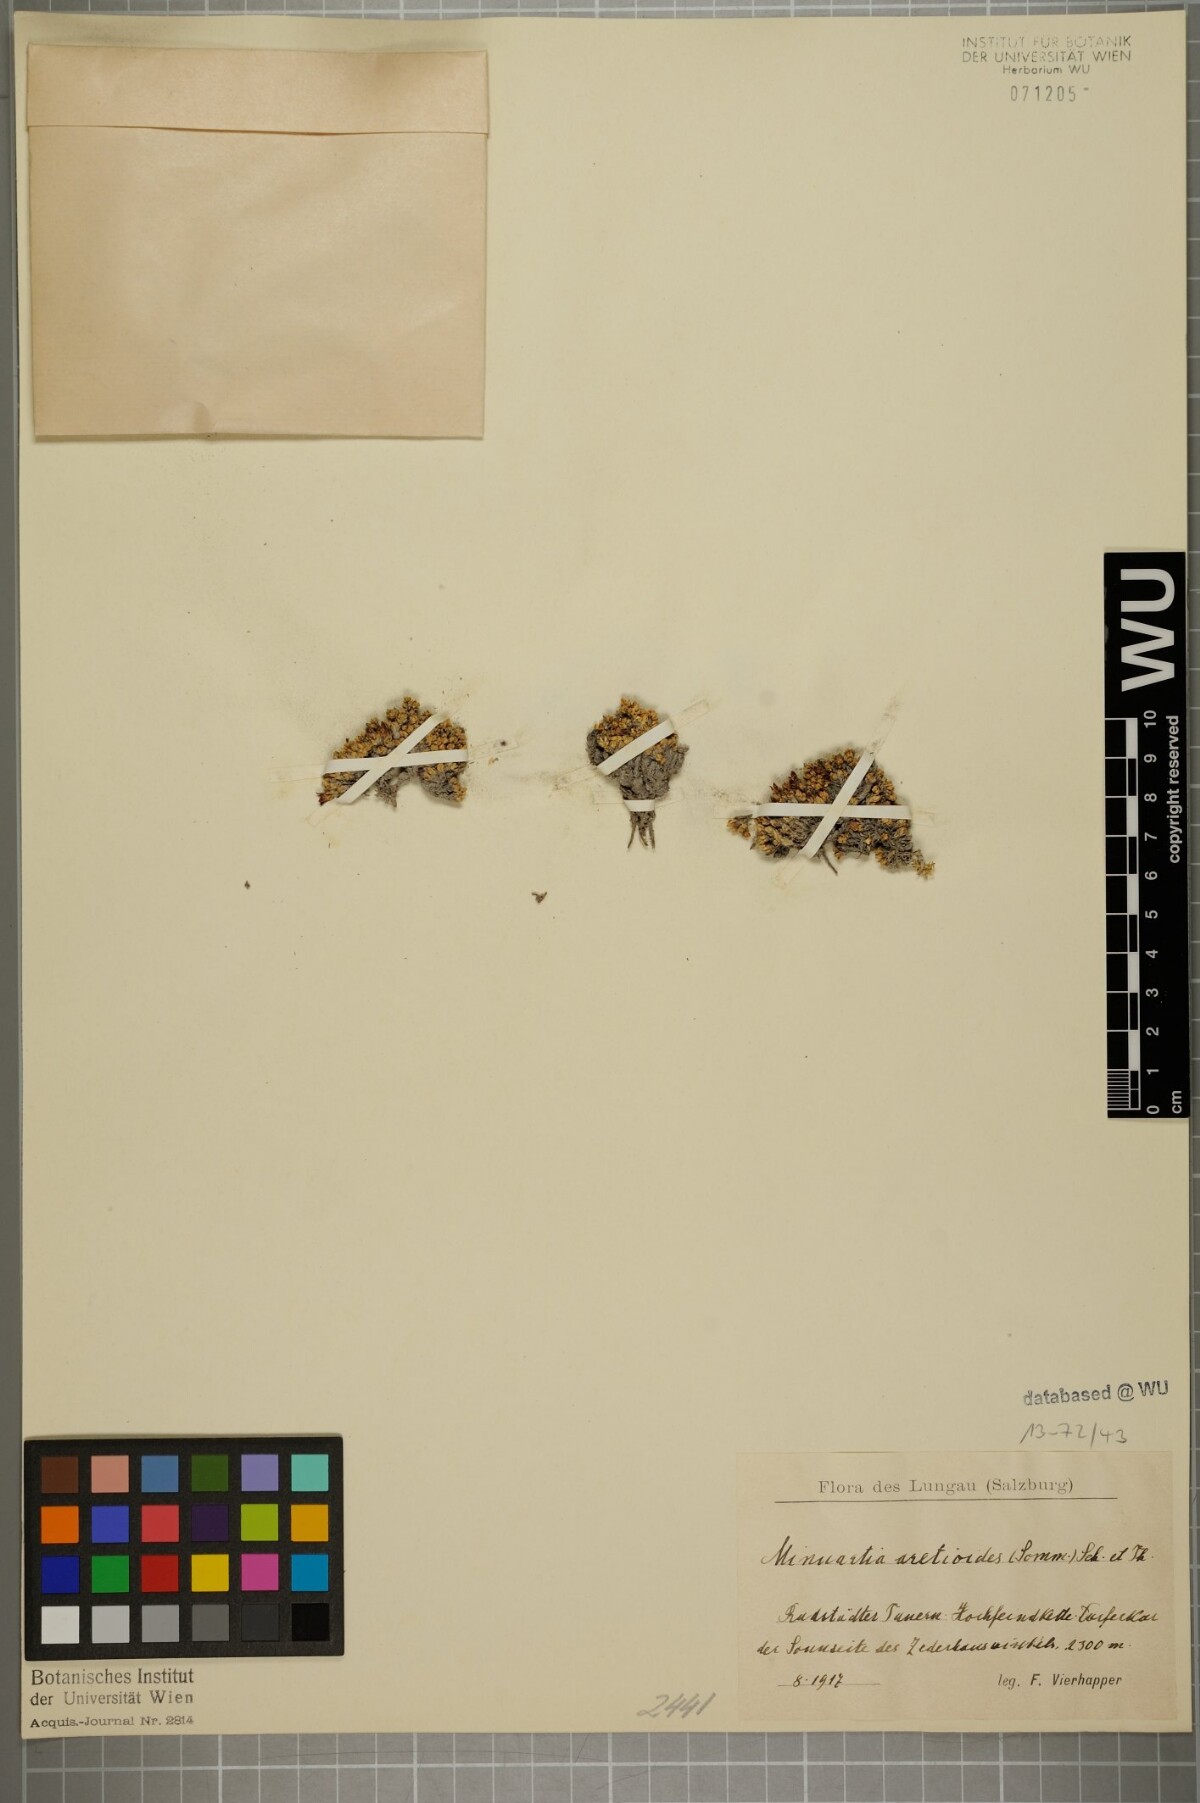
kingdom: Plantae
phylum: Tracheophyta
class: Magnoliopsida
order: Caryophyllales
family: Caryophyllaceae
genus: Facchinia
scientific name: Facchinia cherlerioides
